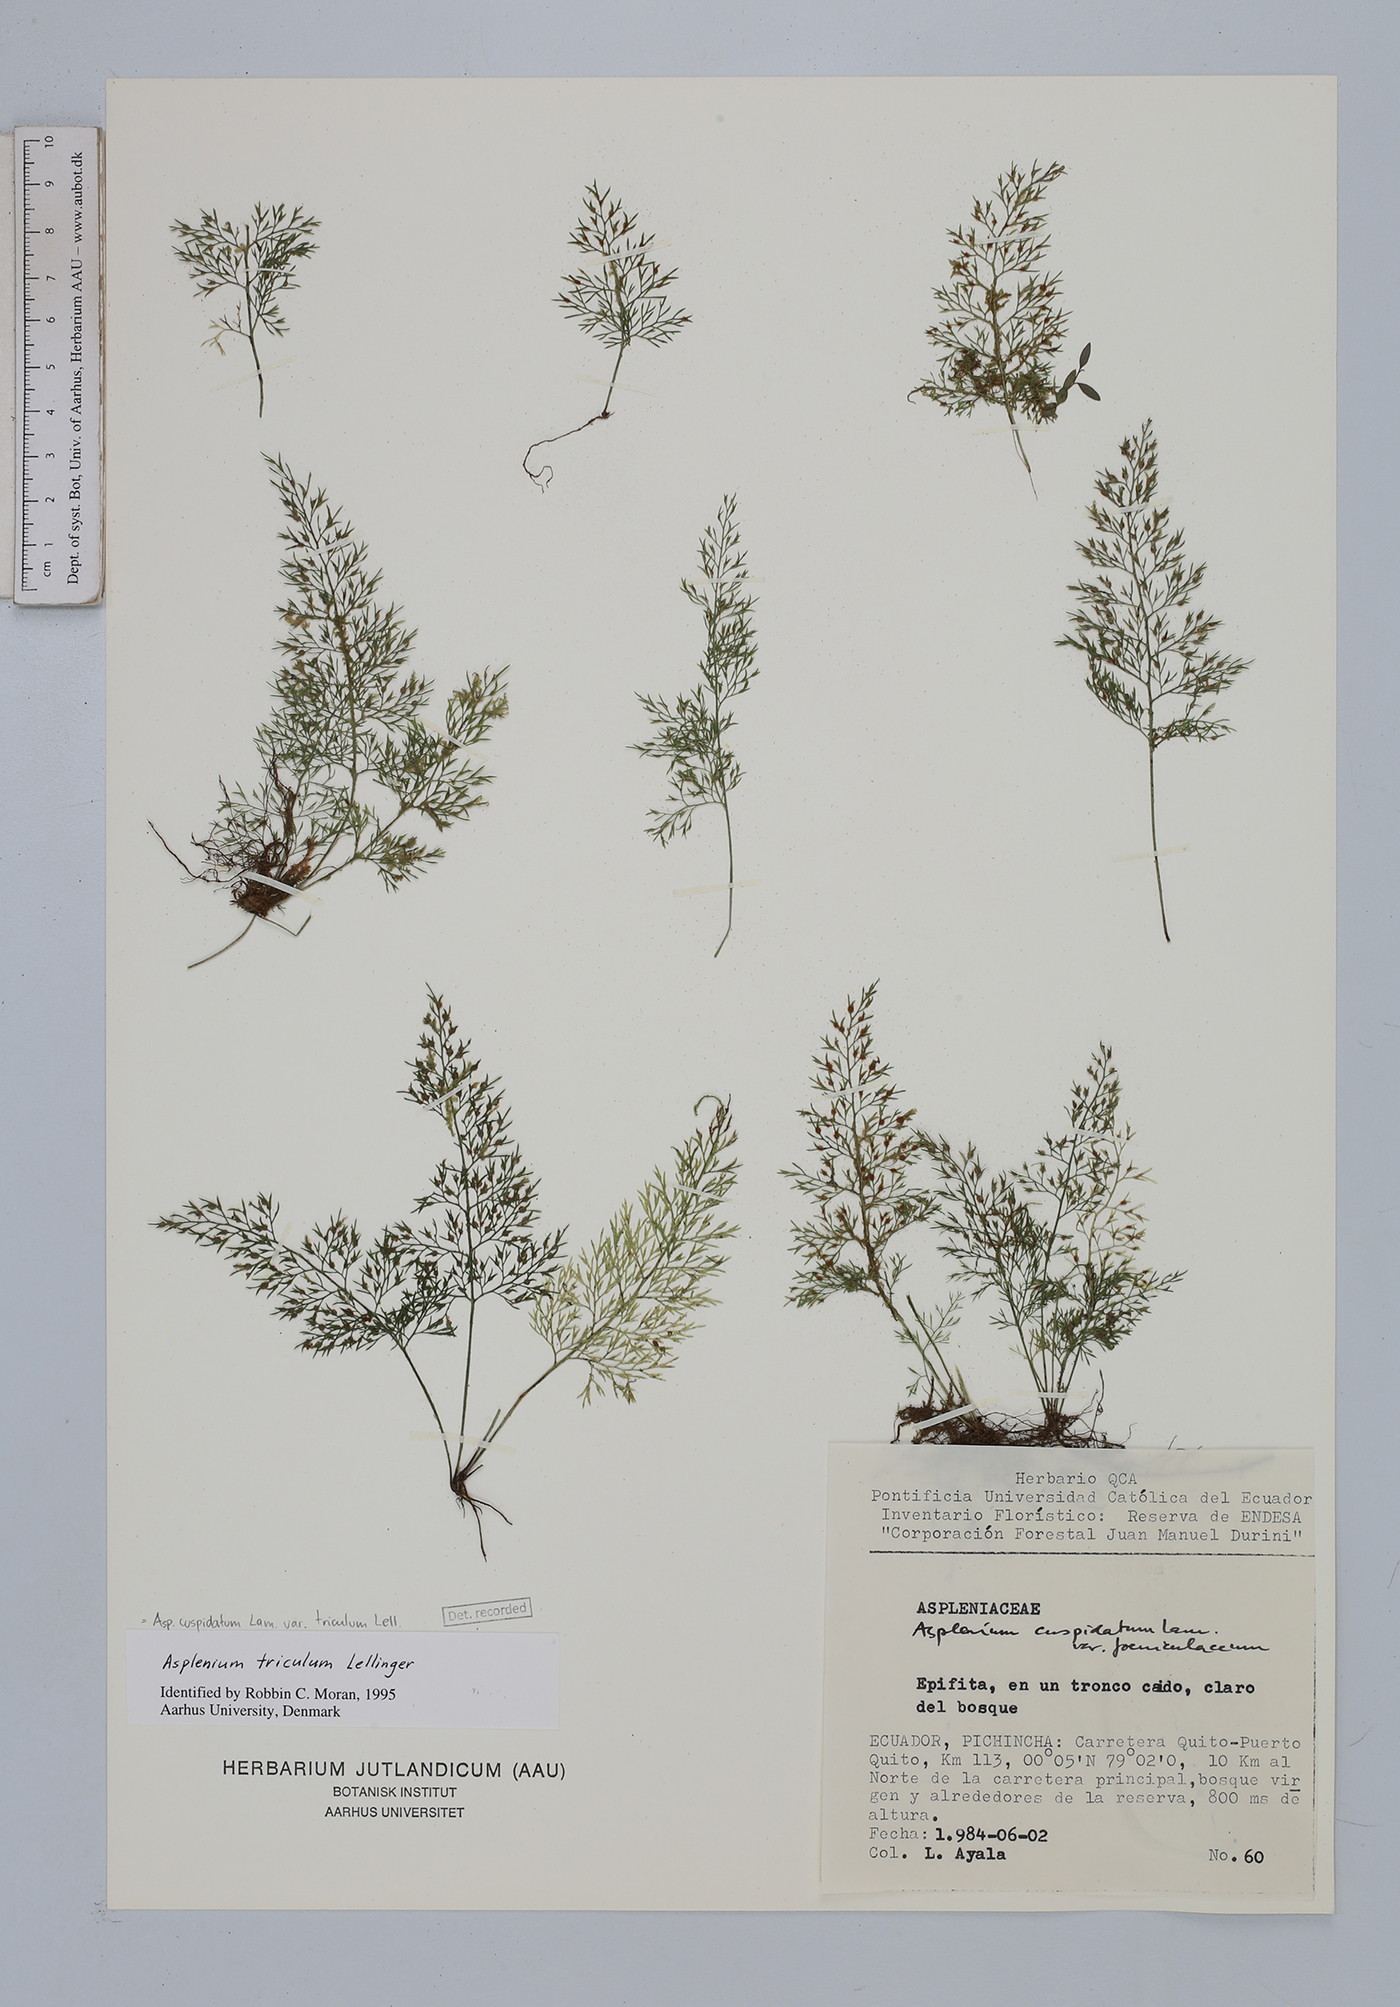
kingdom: Plantae
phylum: Tracheophyta
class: Polypodiopsida
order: Polypodiales
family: Aspleniaceae
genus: Asplenium
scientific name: Asplenium cuspidatum
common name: Eared spleenwort
